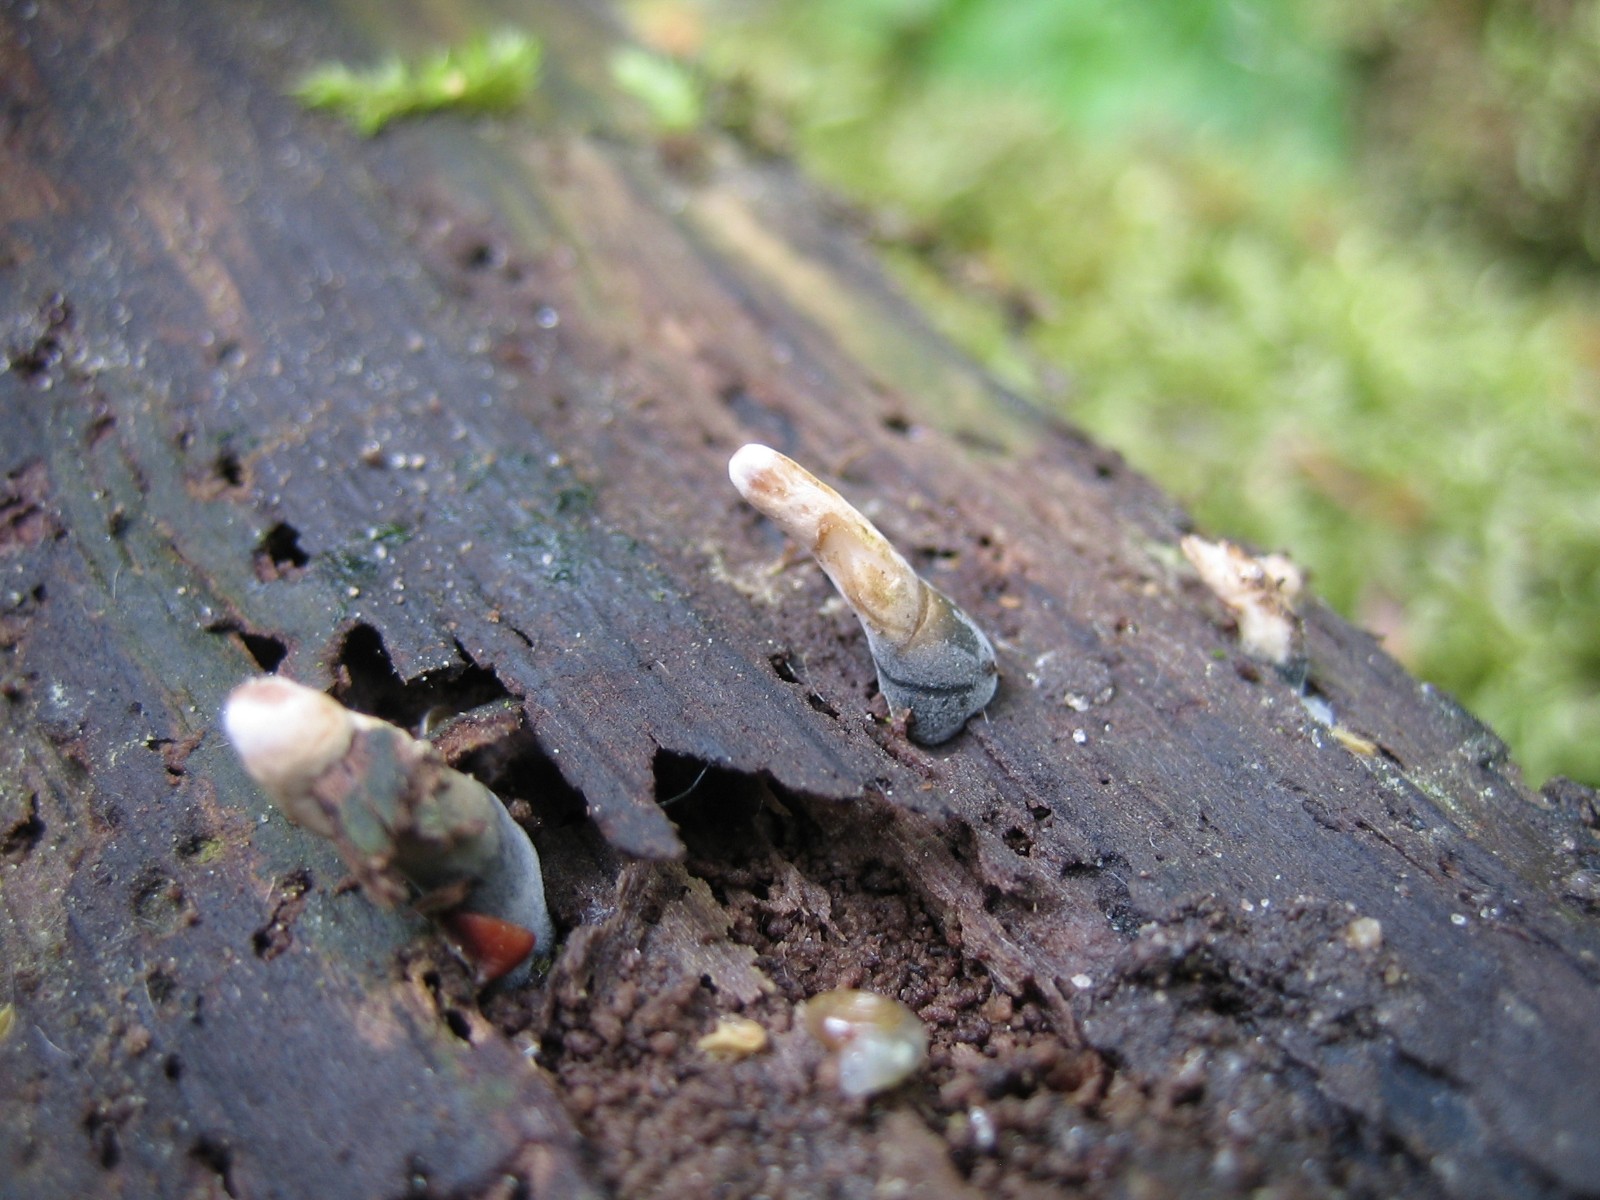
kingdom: Fungi
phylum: Ascomycota
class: Sordariomycetes
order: Xylariales
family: Xylariaceae
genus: Xylaria
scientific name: Xylaria longipes
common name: slank stødsvamp
